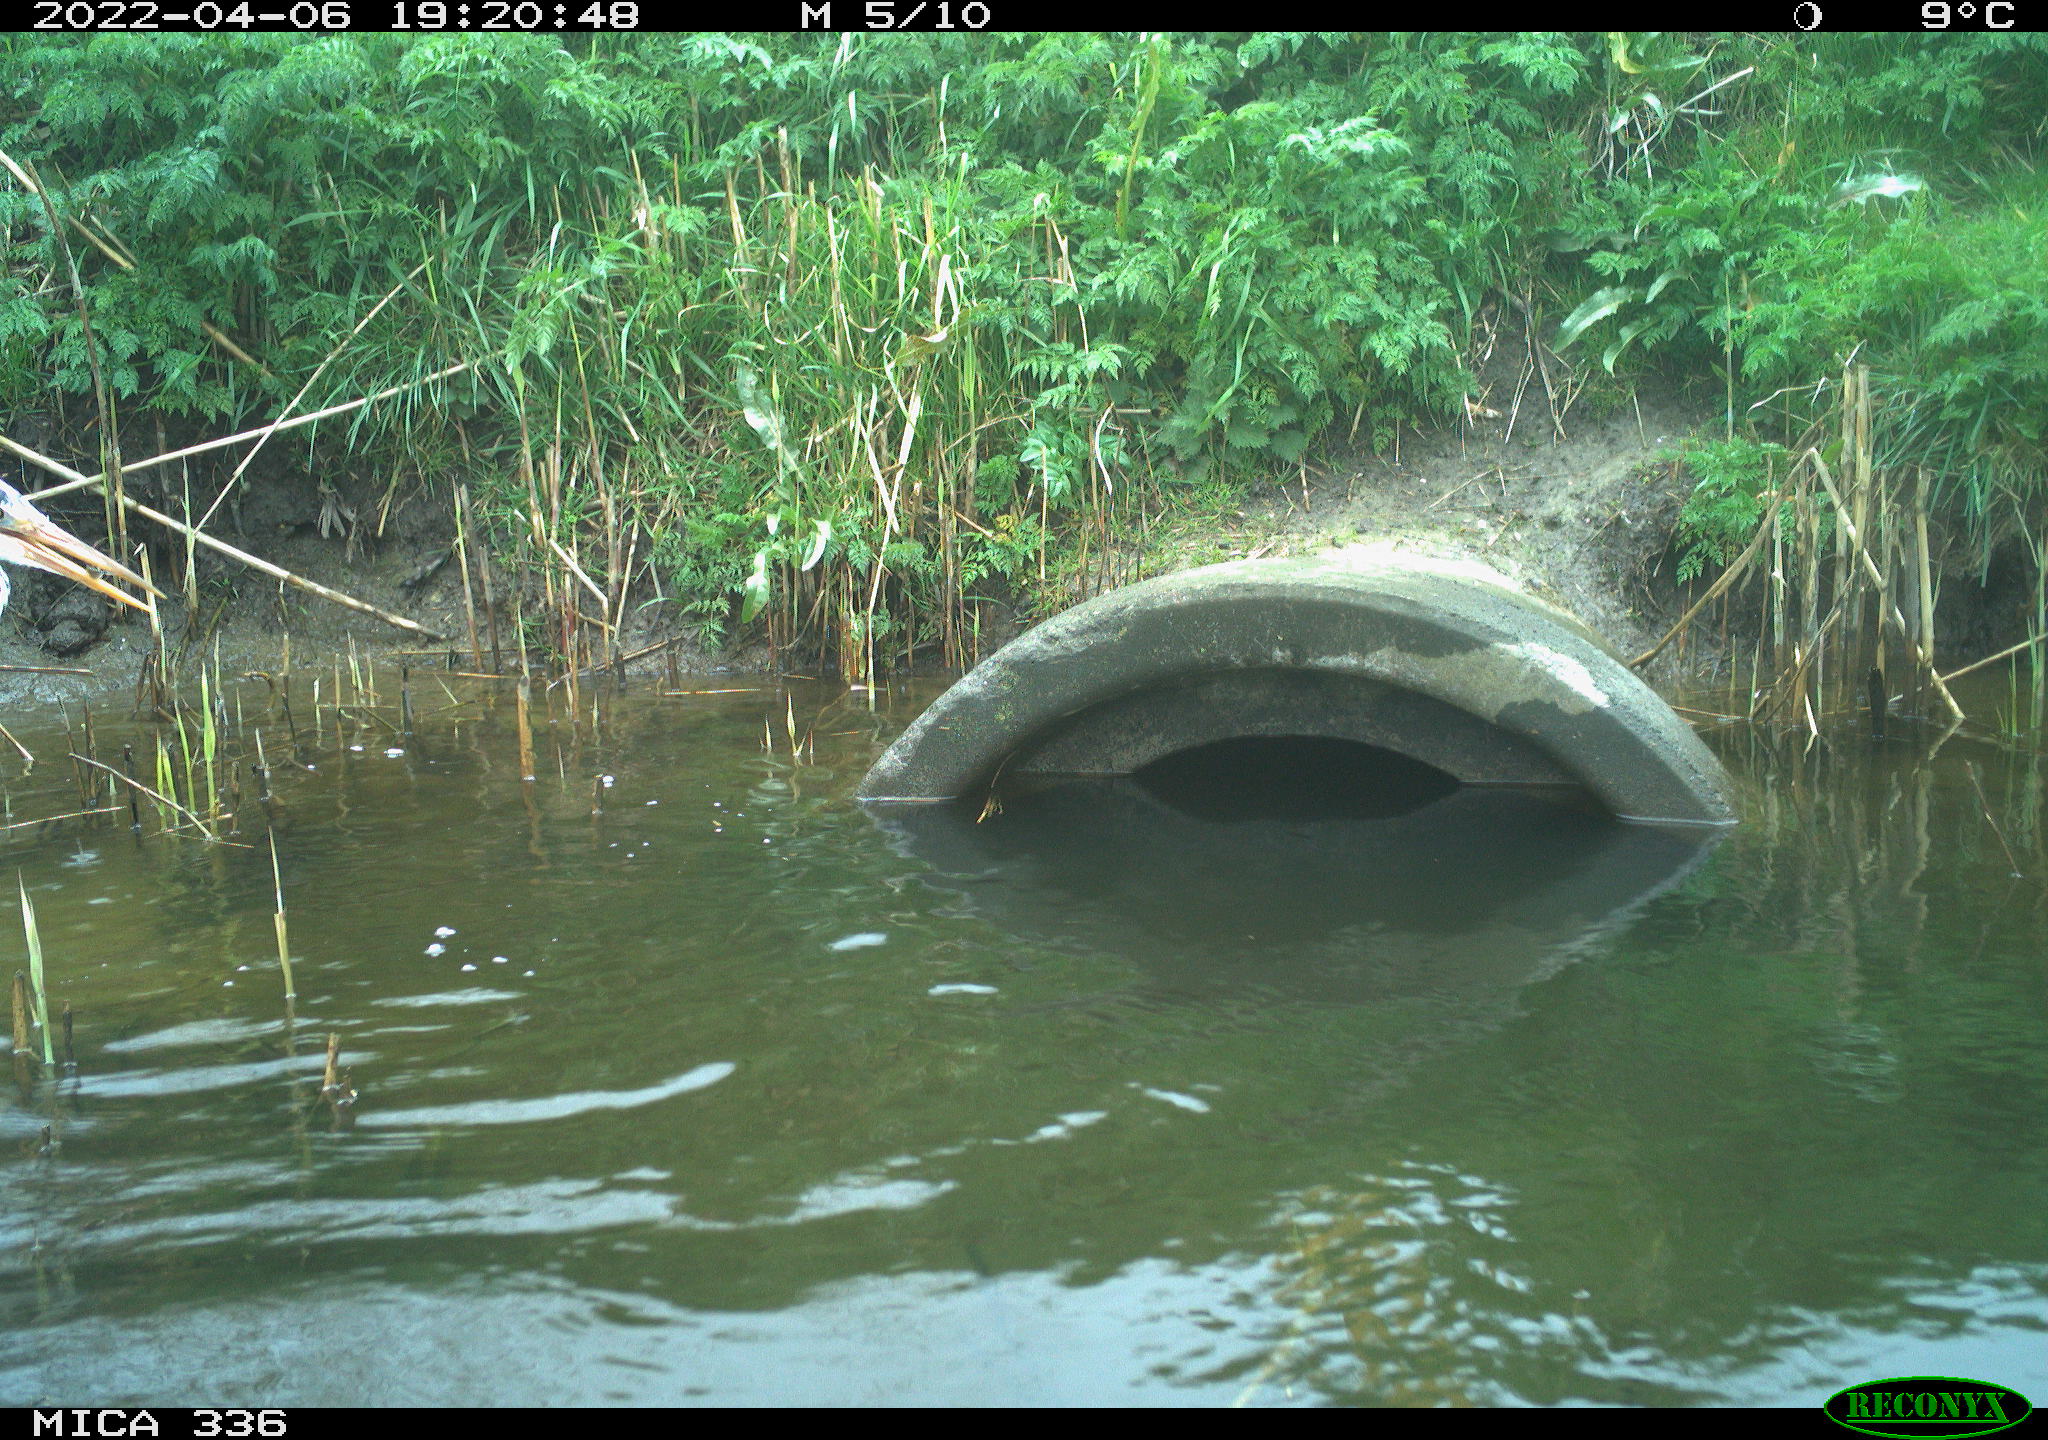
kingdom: Animalia
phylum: Chordata
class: Aves
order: Pelecaniformes
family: Ardeidae
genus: Ardea
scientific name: Ardea cinerea
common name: Grey heron
